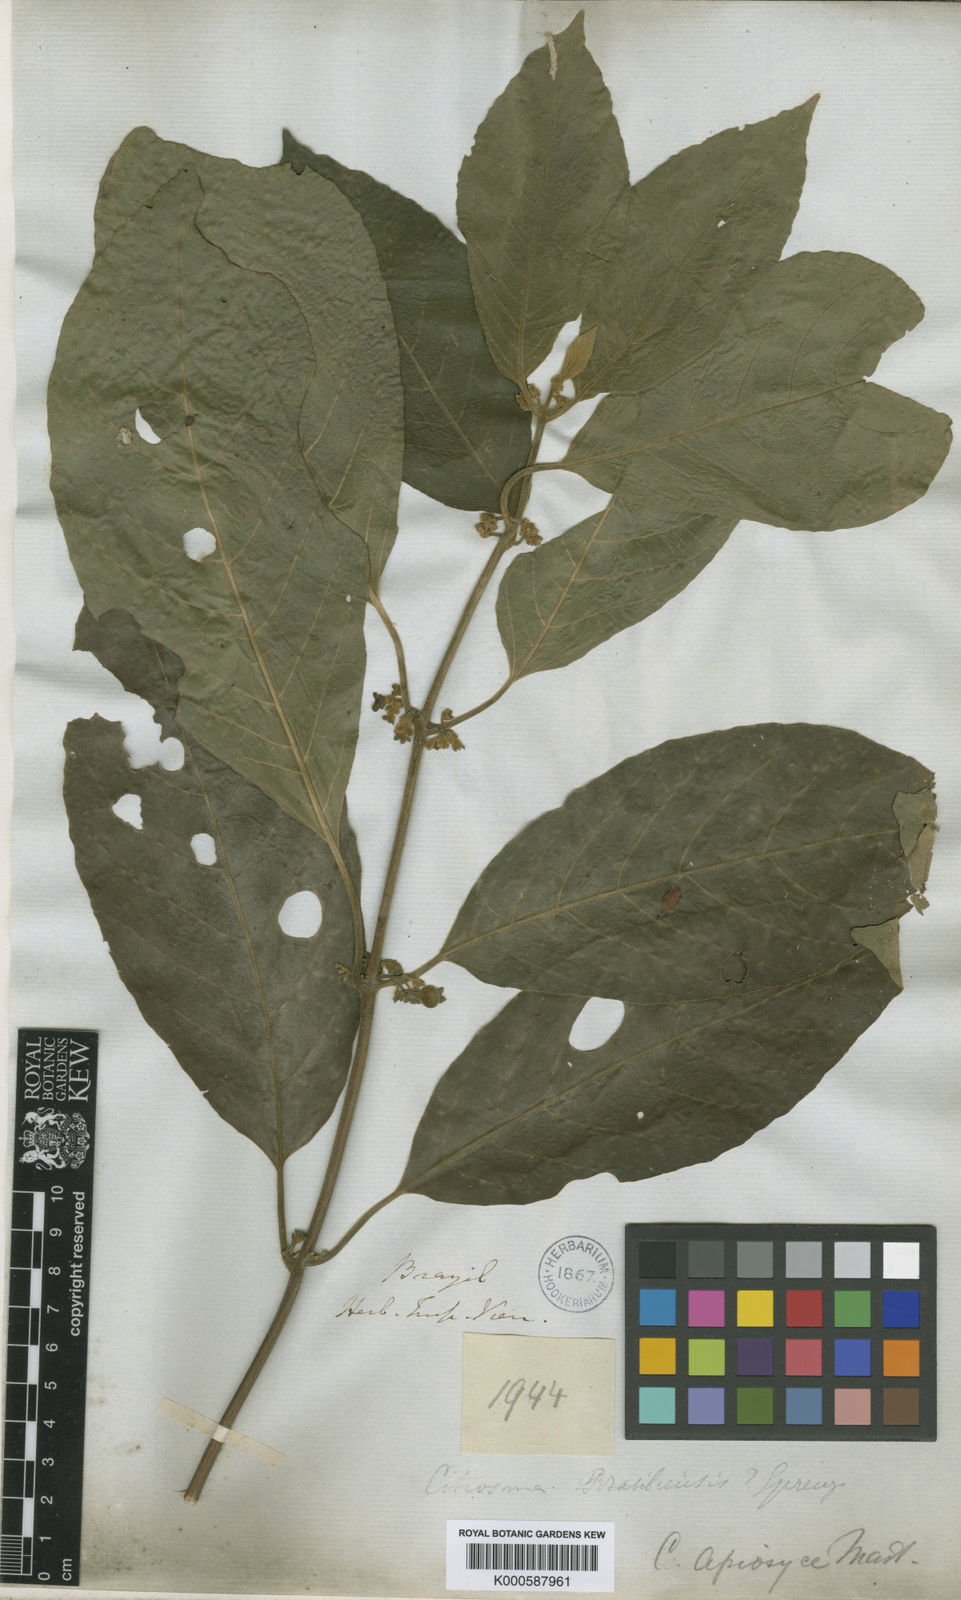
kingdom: Plantae
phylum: Tracheophyta
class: Magnoliopsida
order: Laurales
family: Siparunaceae
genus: Siparuna
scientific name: Siparuna brasiliensis
